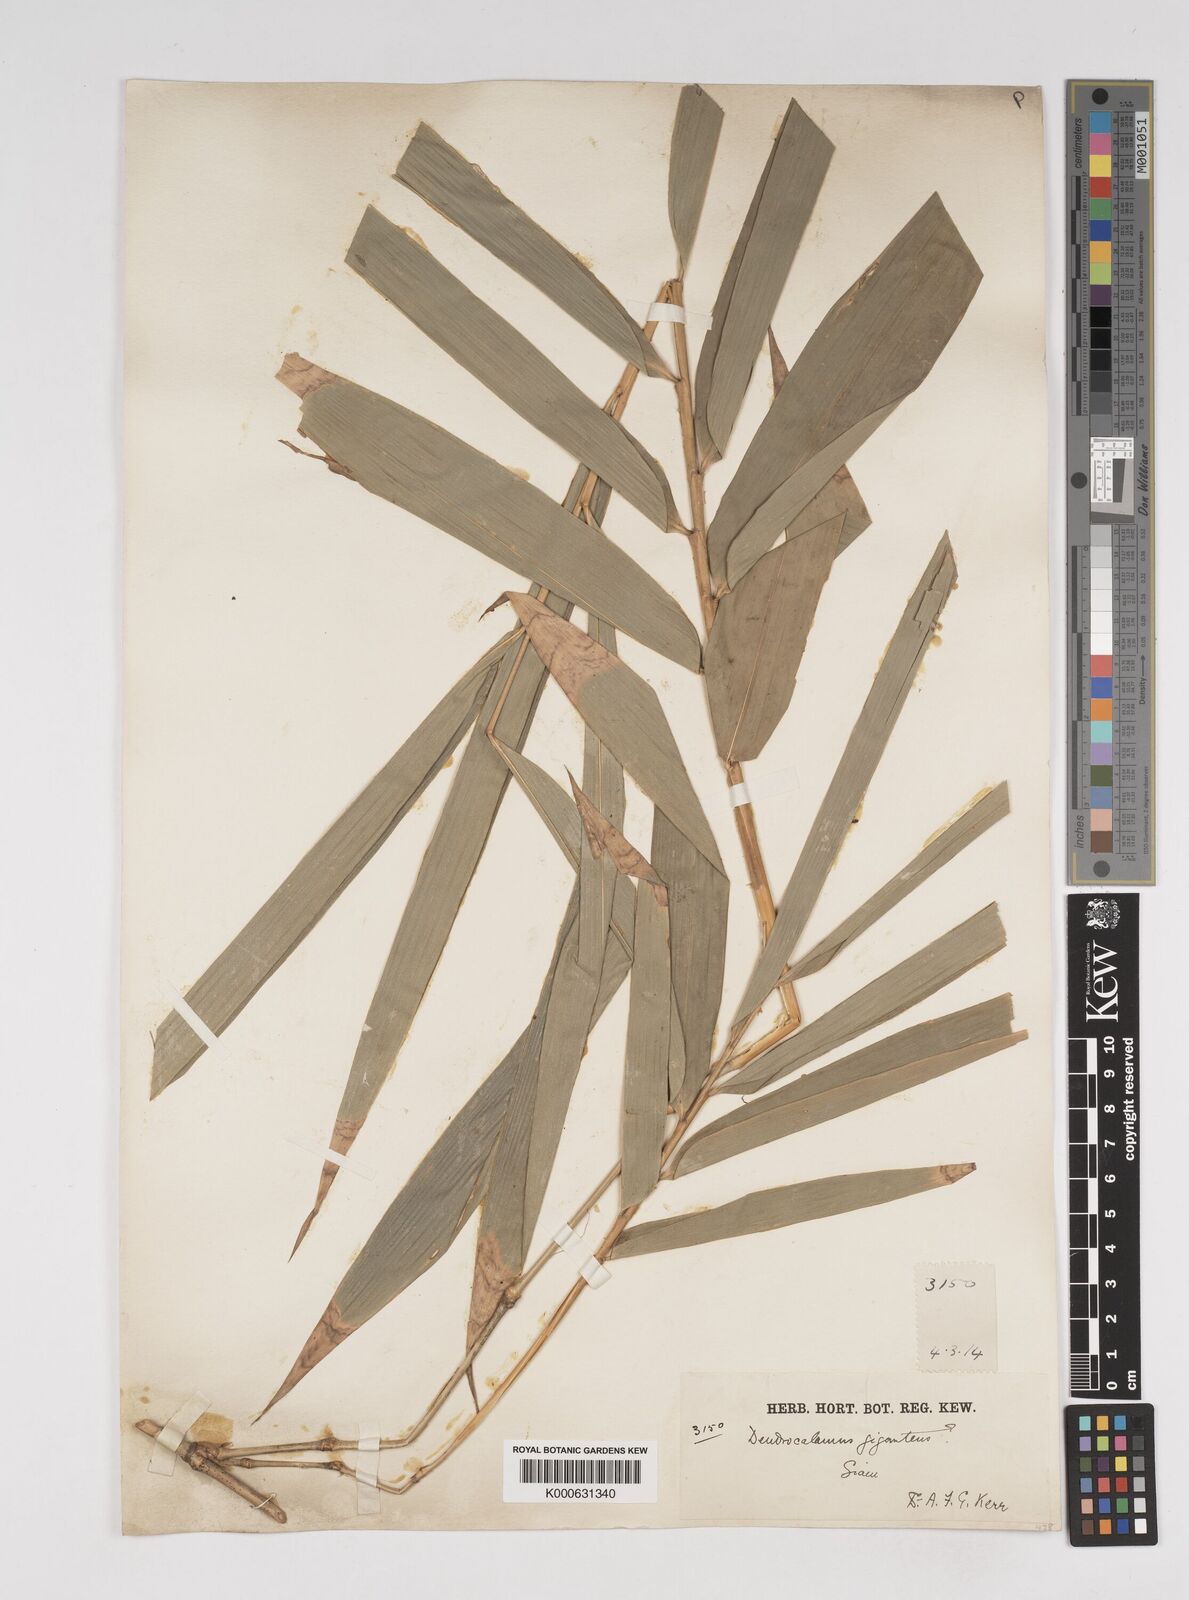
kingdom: Plantae
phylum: Tracheophyta
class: Liliopsida
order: Poales
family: Poaceae
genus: Dendrocalamus
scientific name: Dendrocalamus giganteus
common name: Giant bamboo
